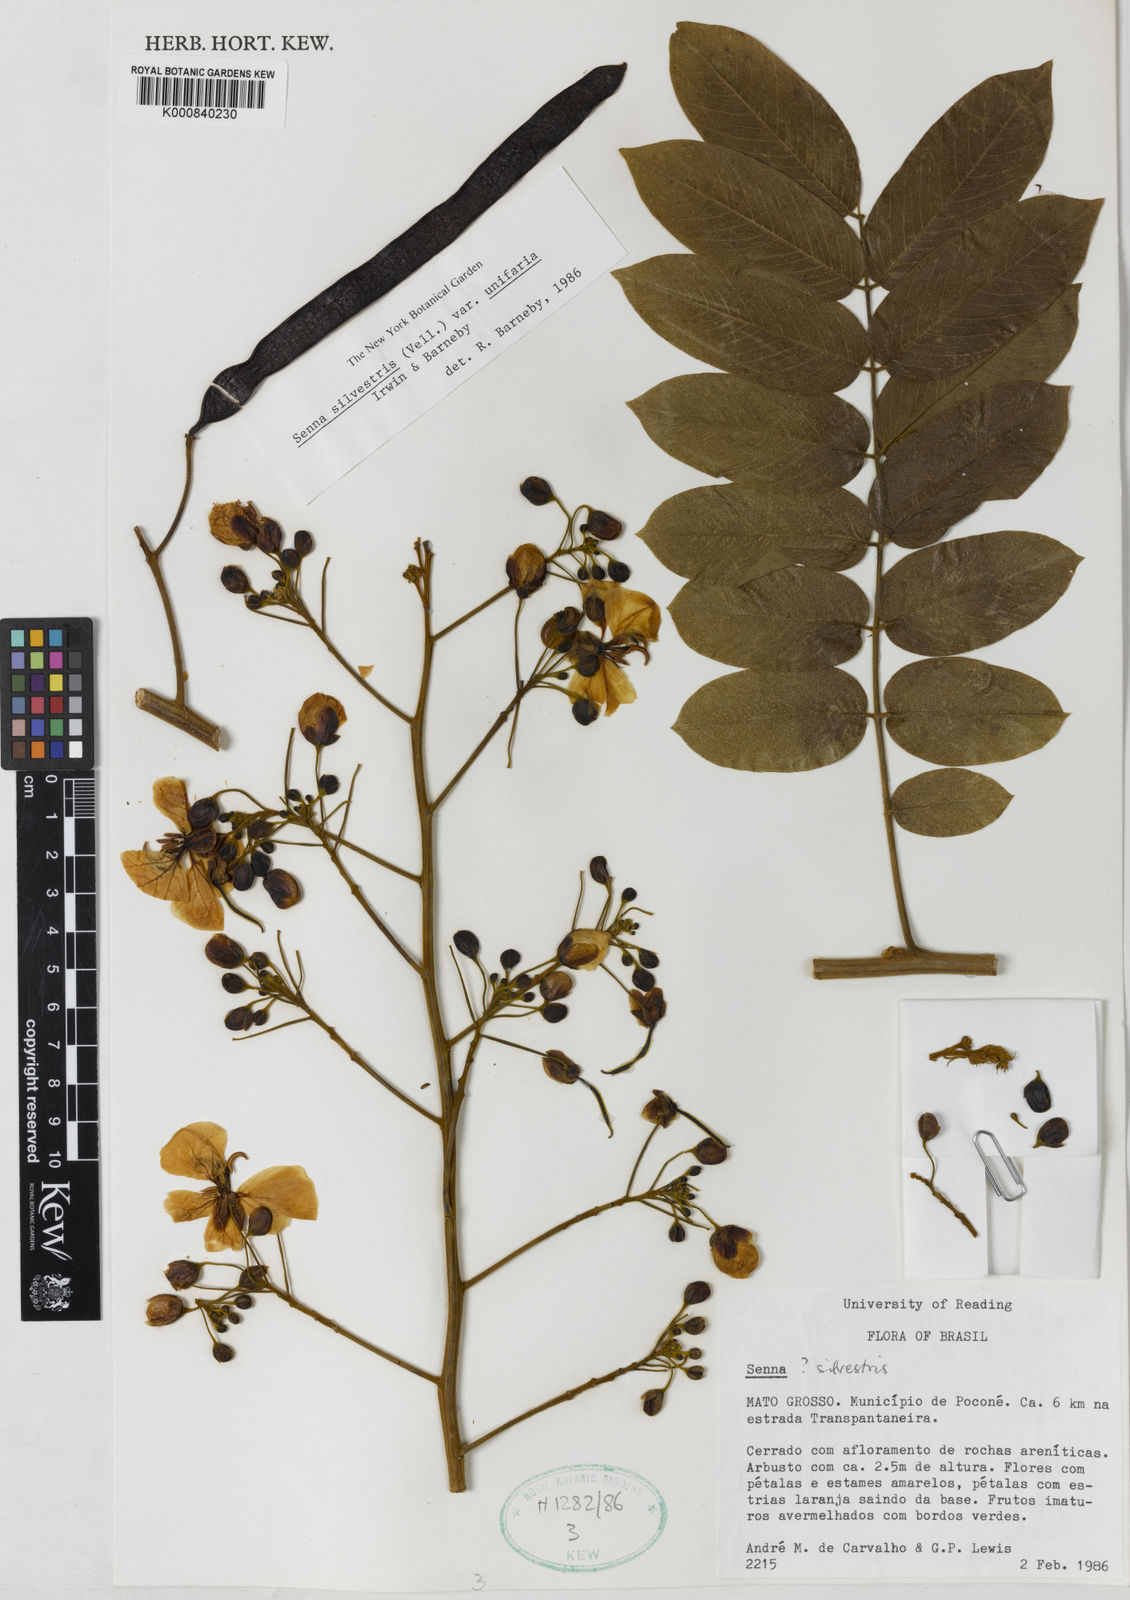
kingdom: Plantae
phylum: Tracheophyta
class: Magnoliopsida
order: Fabales
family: Fabaceae
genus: Senna
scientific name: Senna silvestris
